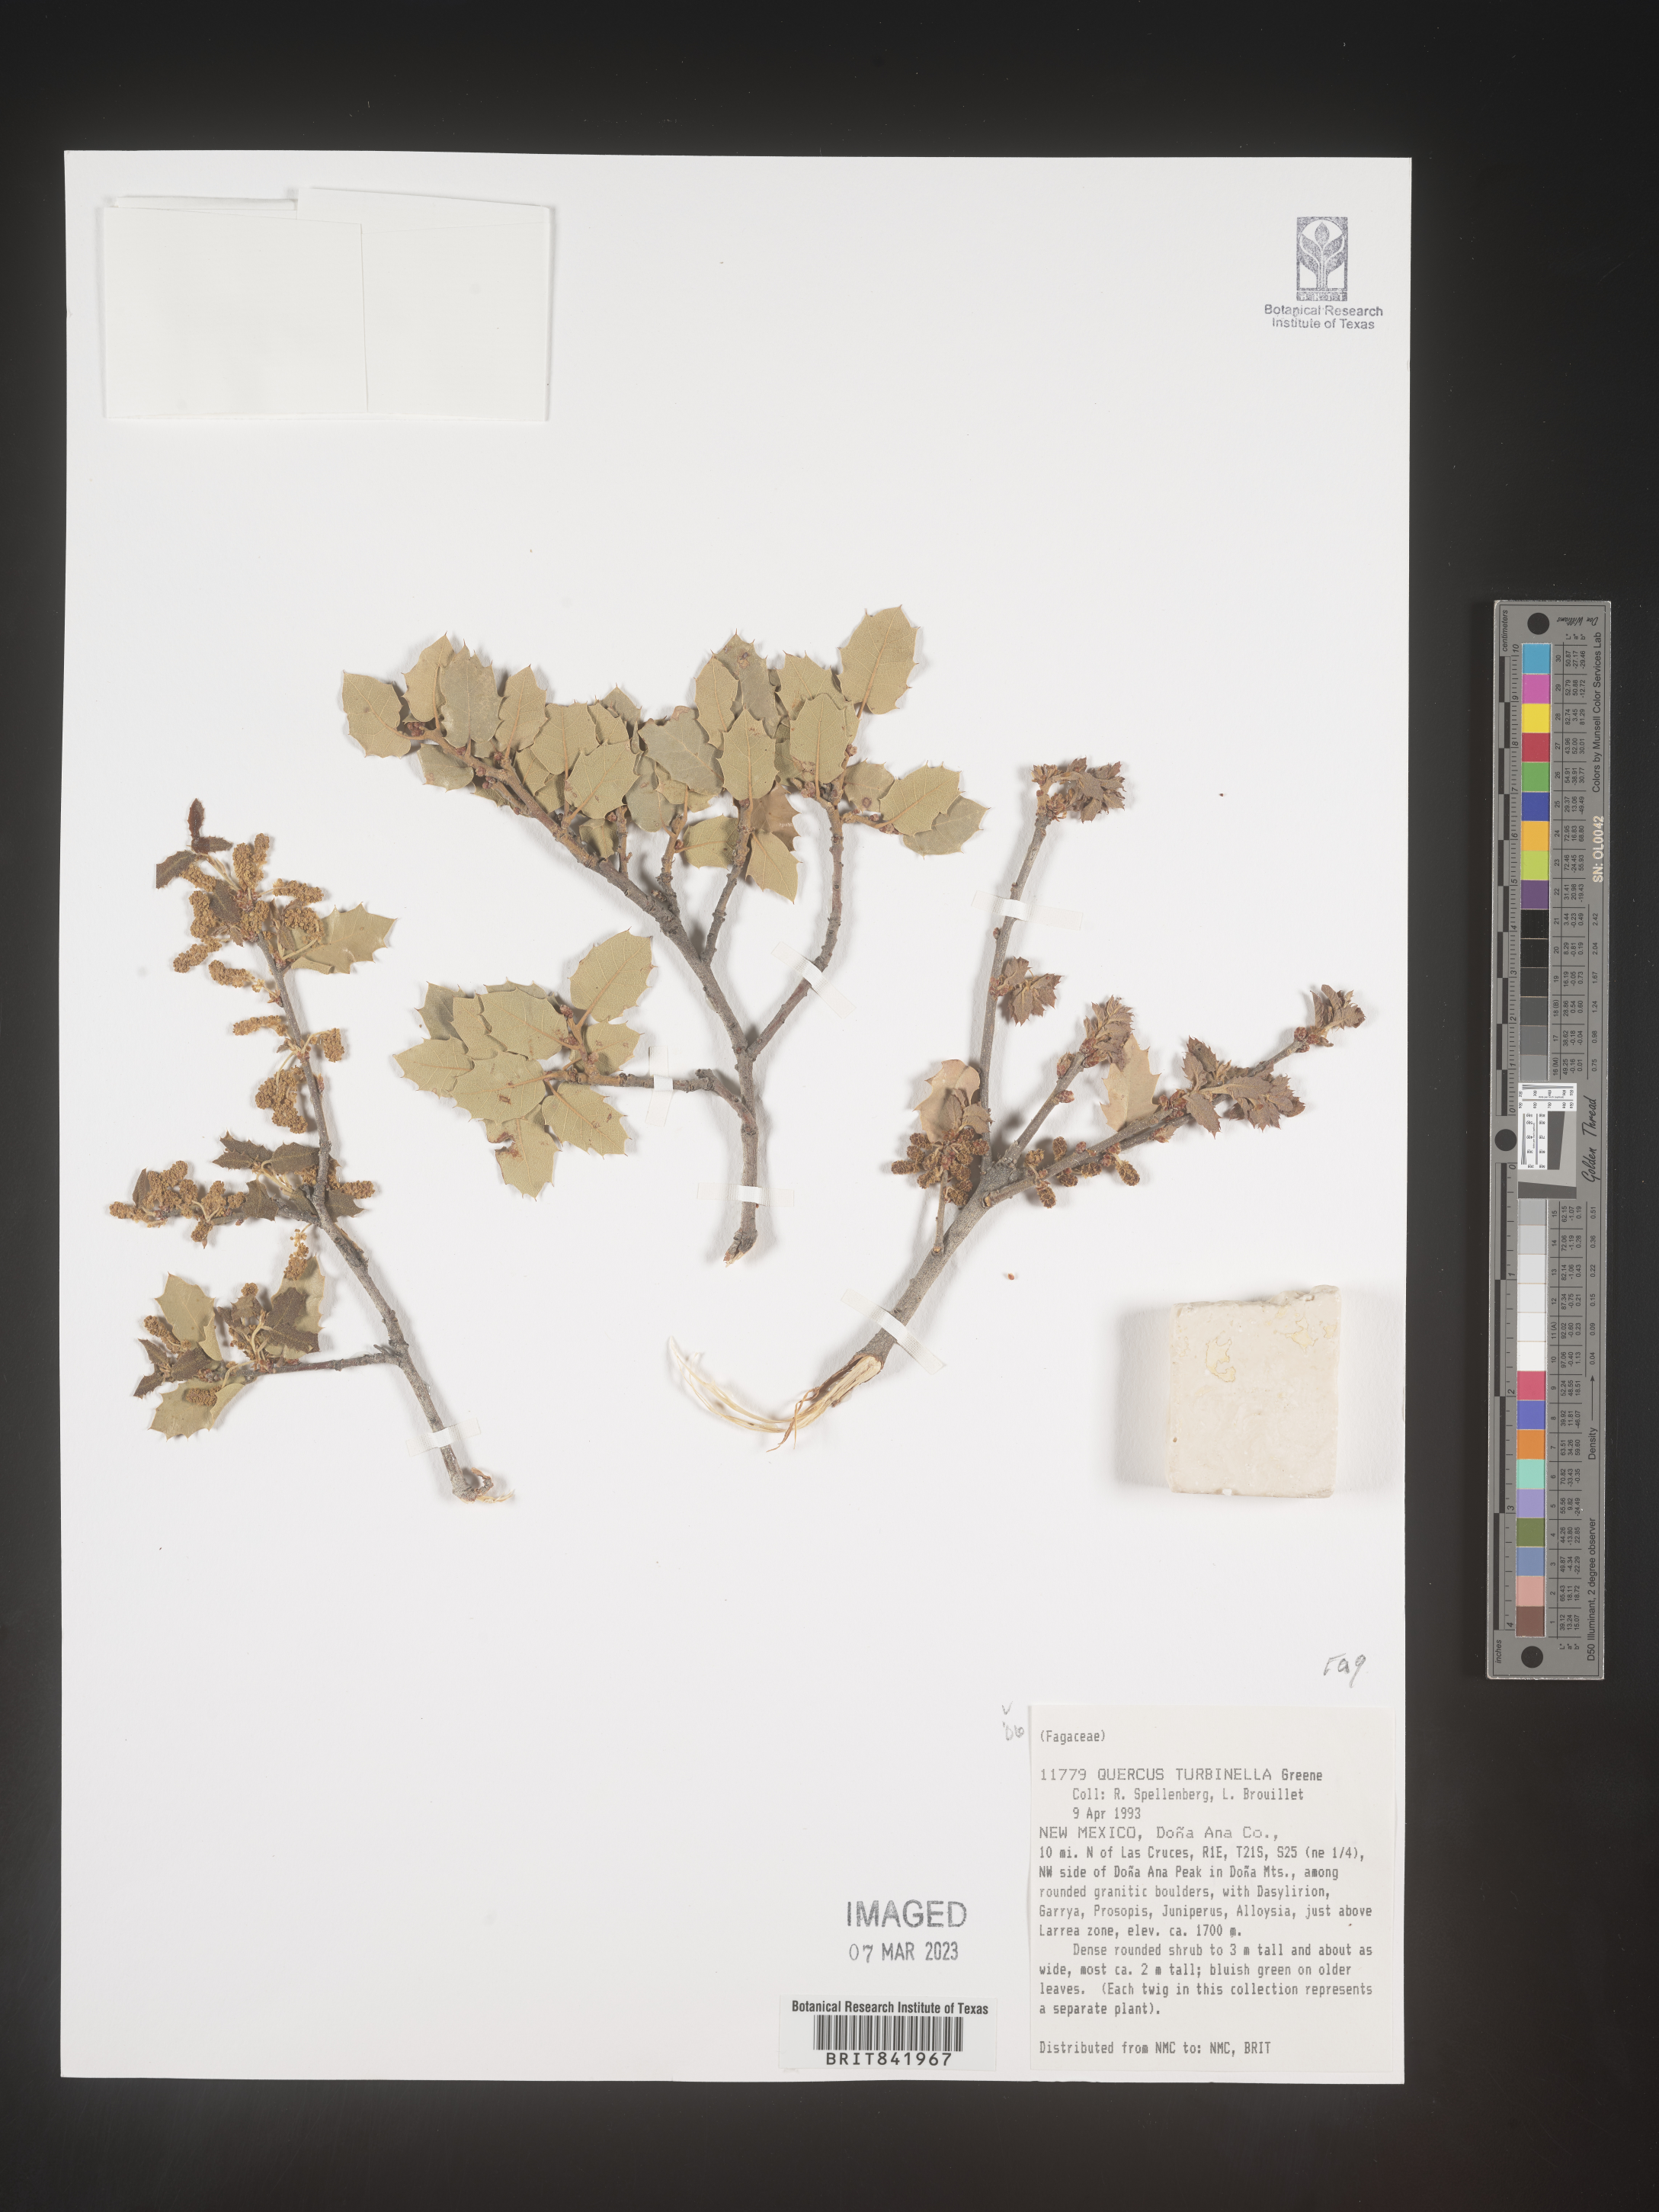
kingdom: Plantae
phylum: Tracheophyta
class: Magnoliopsida
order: Fagales
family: Fagaceae
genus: Quercus
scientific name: Quercus turbinella
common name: Sonoran scrub oak
